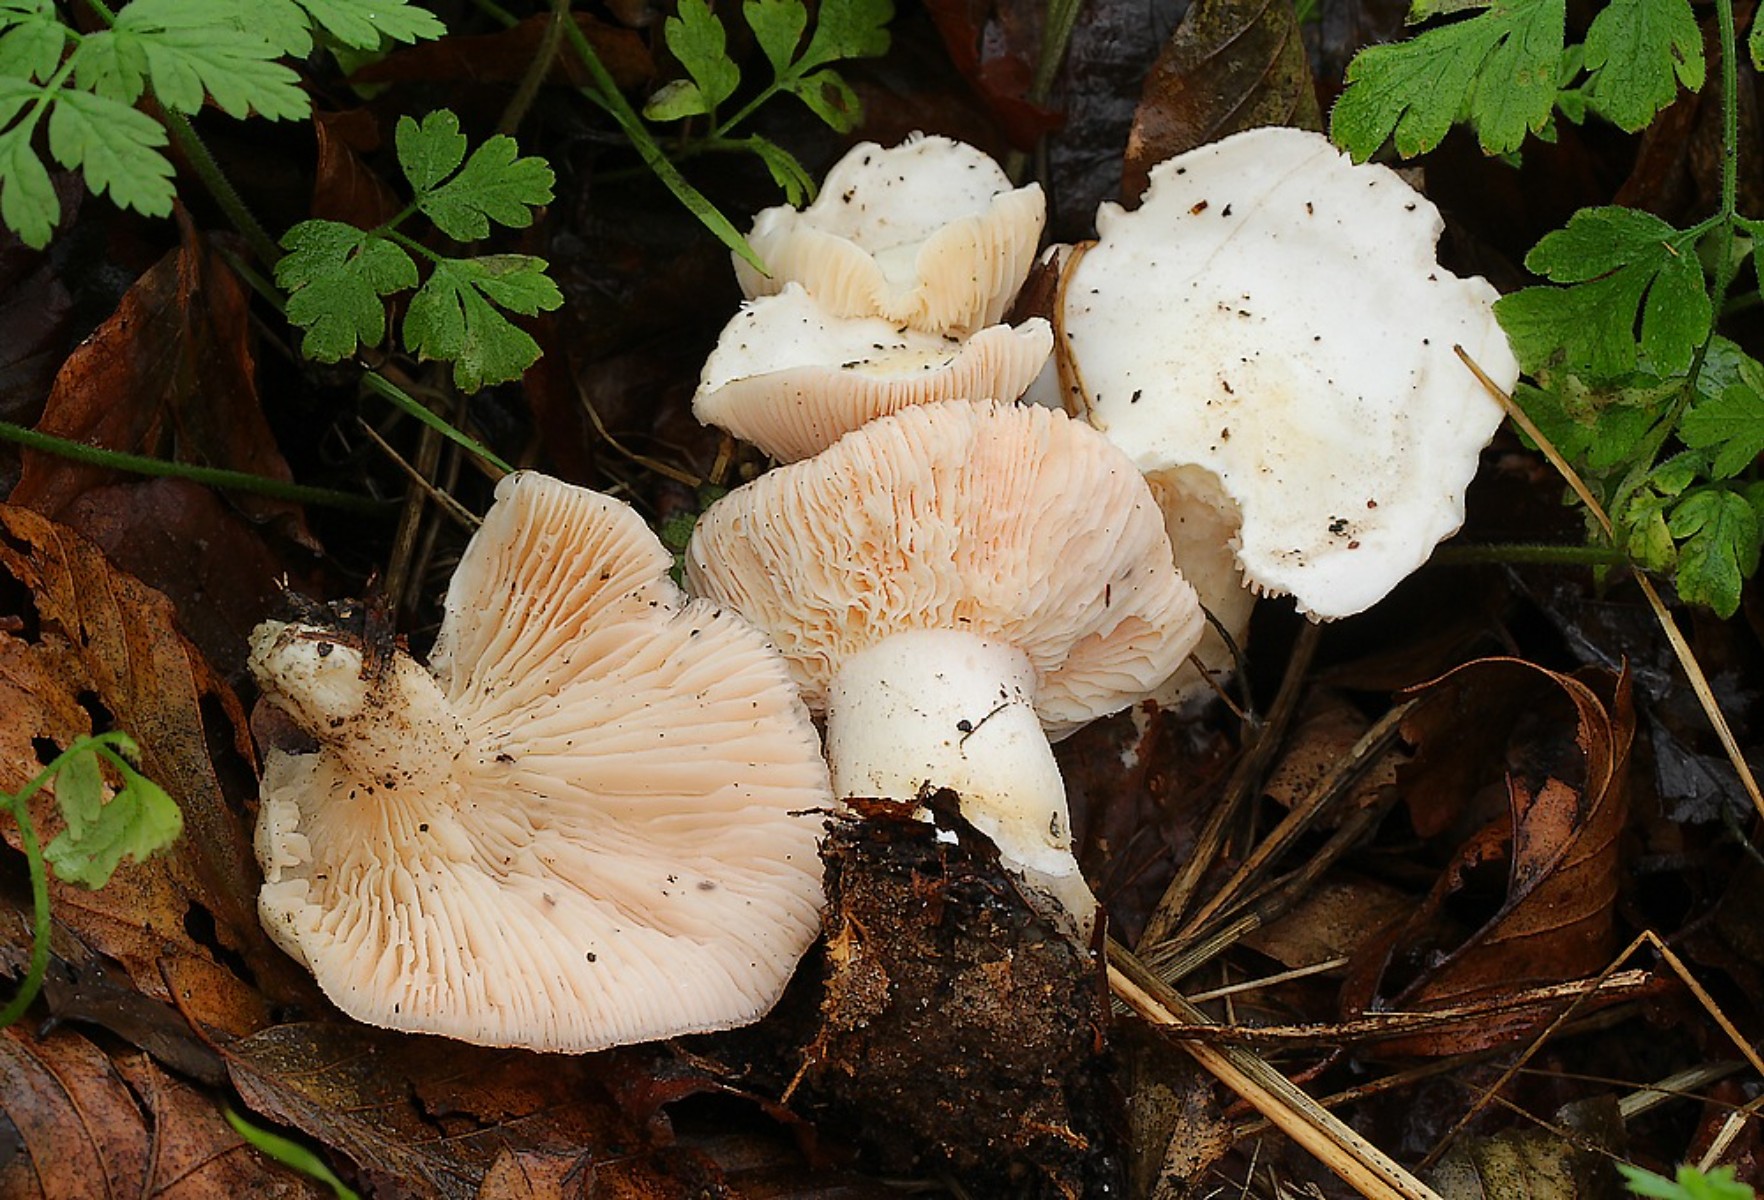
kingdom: Fungi
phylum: Basidiomycota
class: Agaricomycetes
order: Agaricales
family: Tricholomataceae
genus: Pseudoclitopilus
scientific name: Pseudoclitopilus rhodoleucus
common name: rosabladet tragtridderhat
